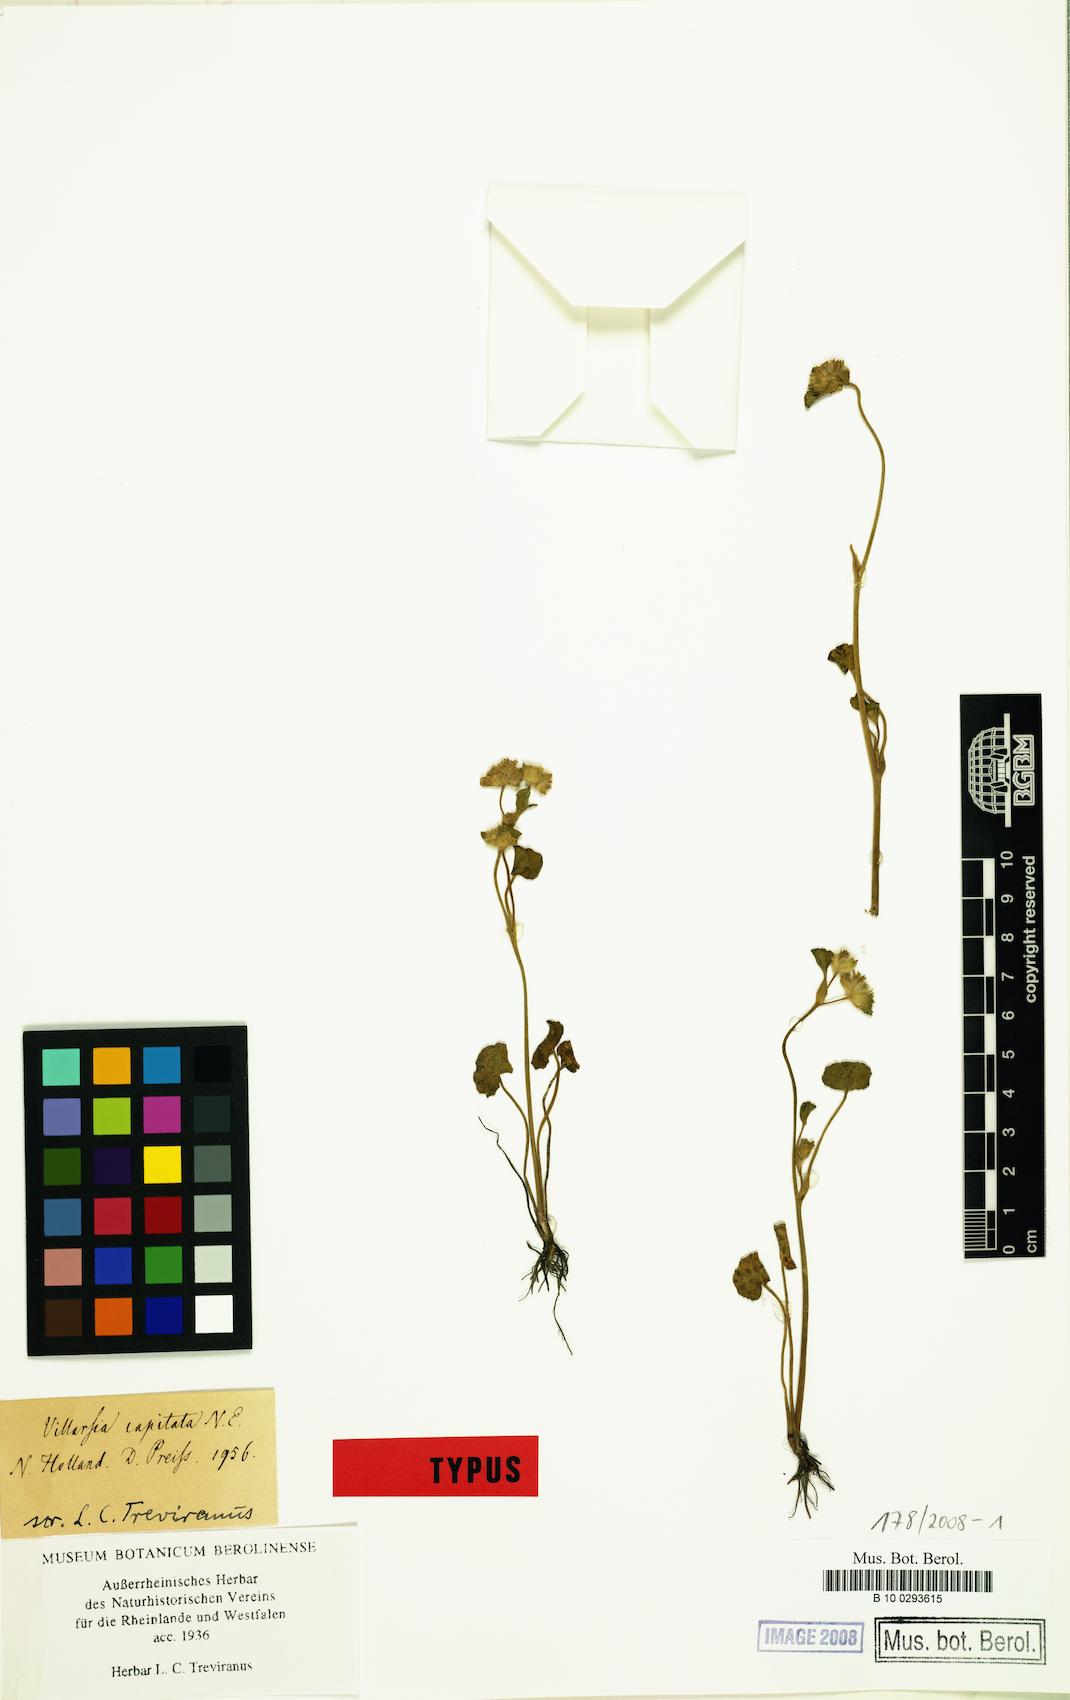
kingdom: Plantae
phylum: Tracheophyta
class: Magnoliopsida
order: Asterales
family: Menyanthaceae
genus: Liparophyllum
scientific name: Liparophyllum capitatum
